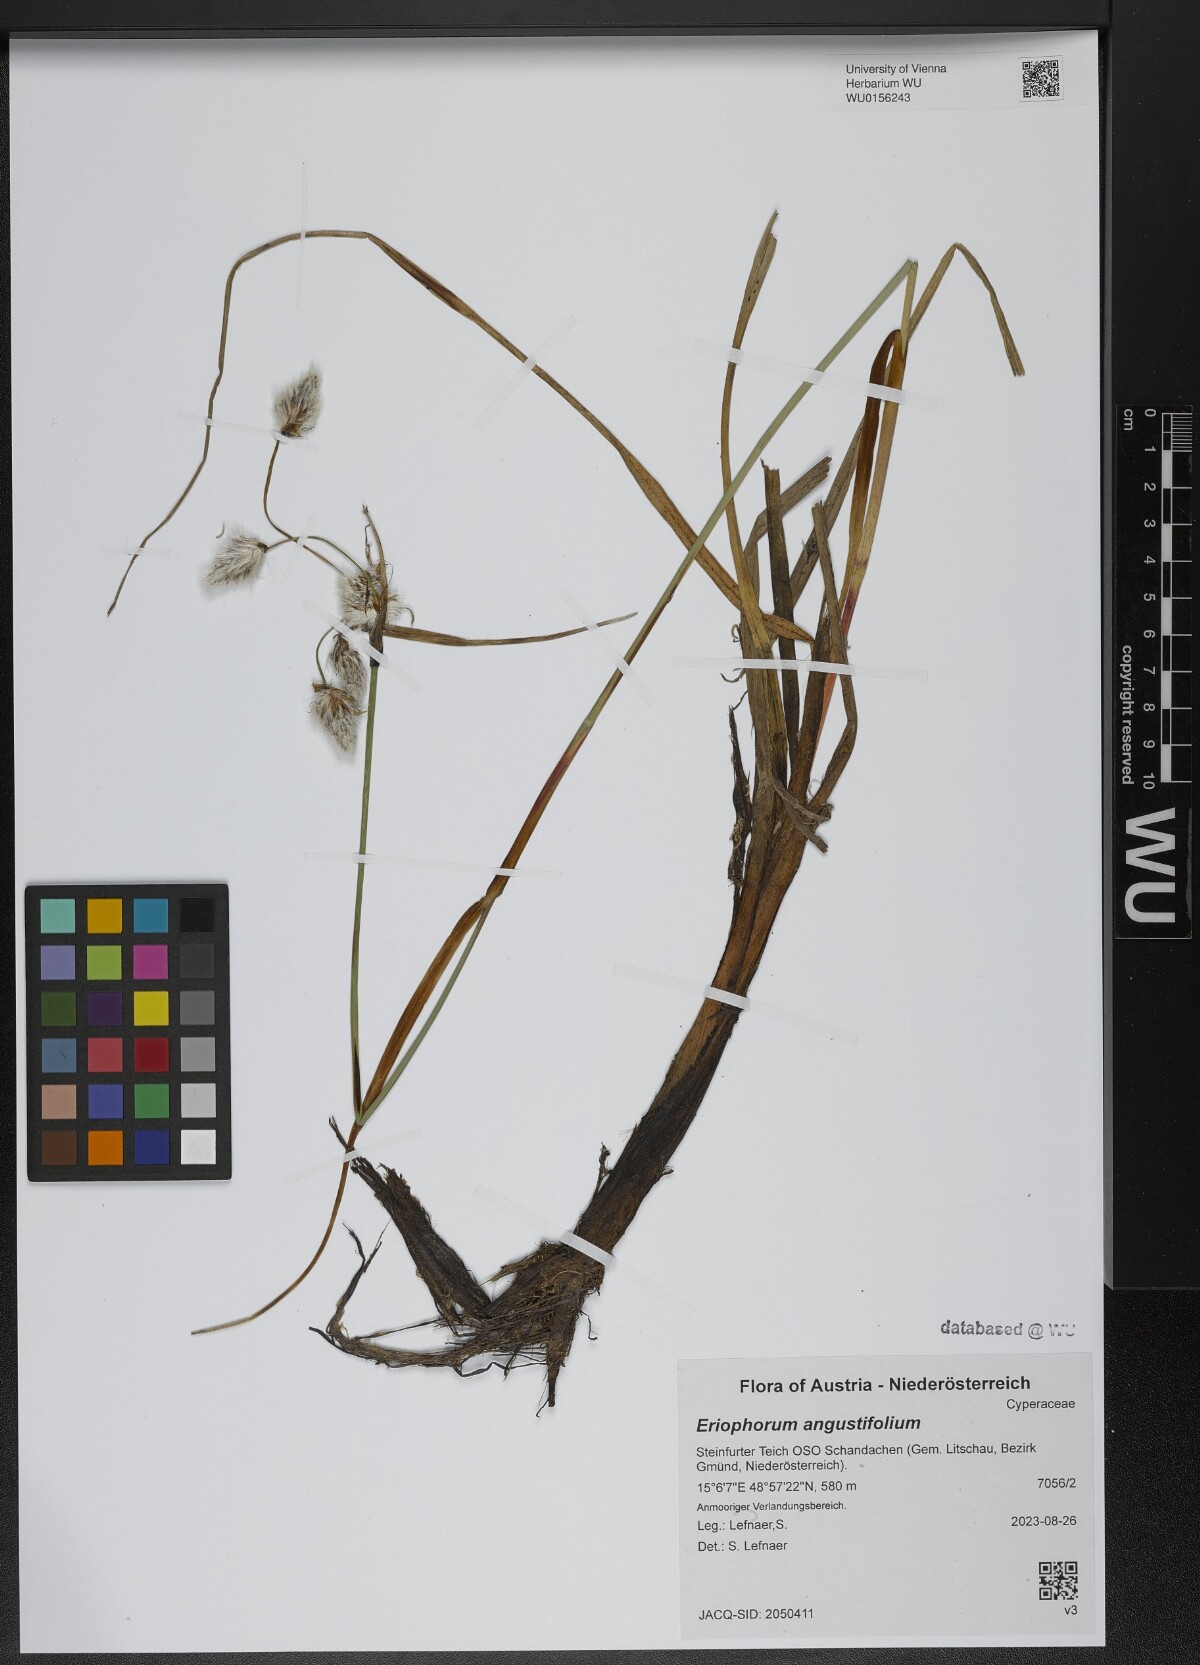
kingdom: Plantae
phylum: Tracheophyta
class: Liliopsida
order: Poales
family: Cyperaceae
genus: Eriophorum
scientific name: Eriophorum angustifolium
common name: Common cottongrass
